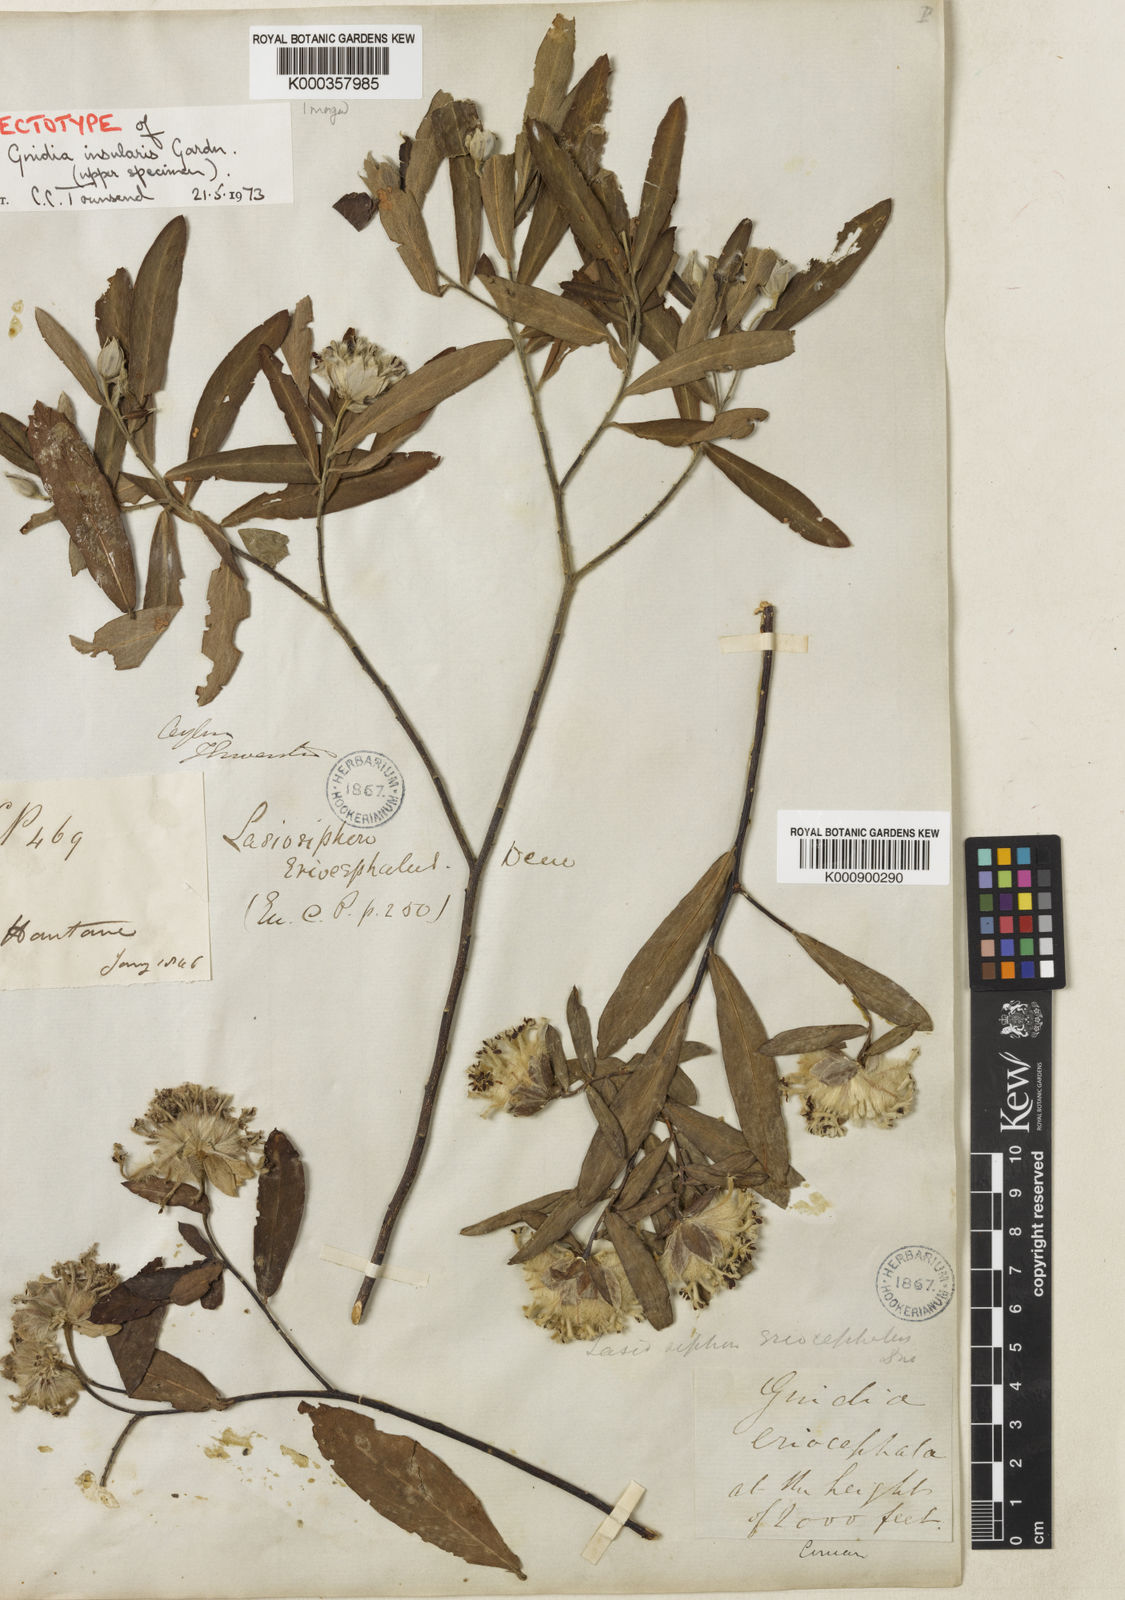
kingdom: Plantae
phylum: Tracheophyta
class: Magnoliopsida
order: Malvales
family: Thymelaeaceae
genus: Gnidia
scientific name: Gnidia glauca
